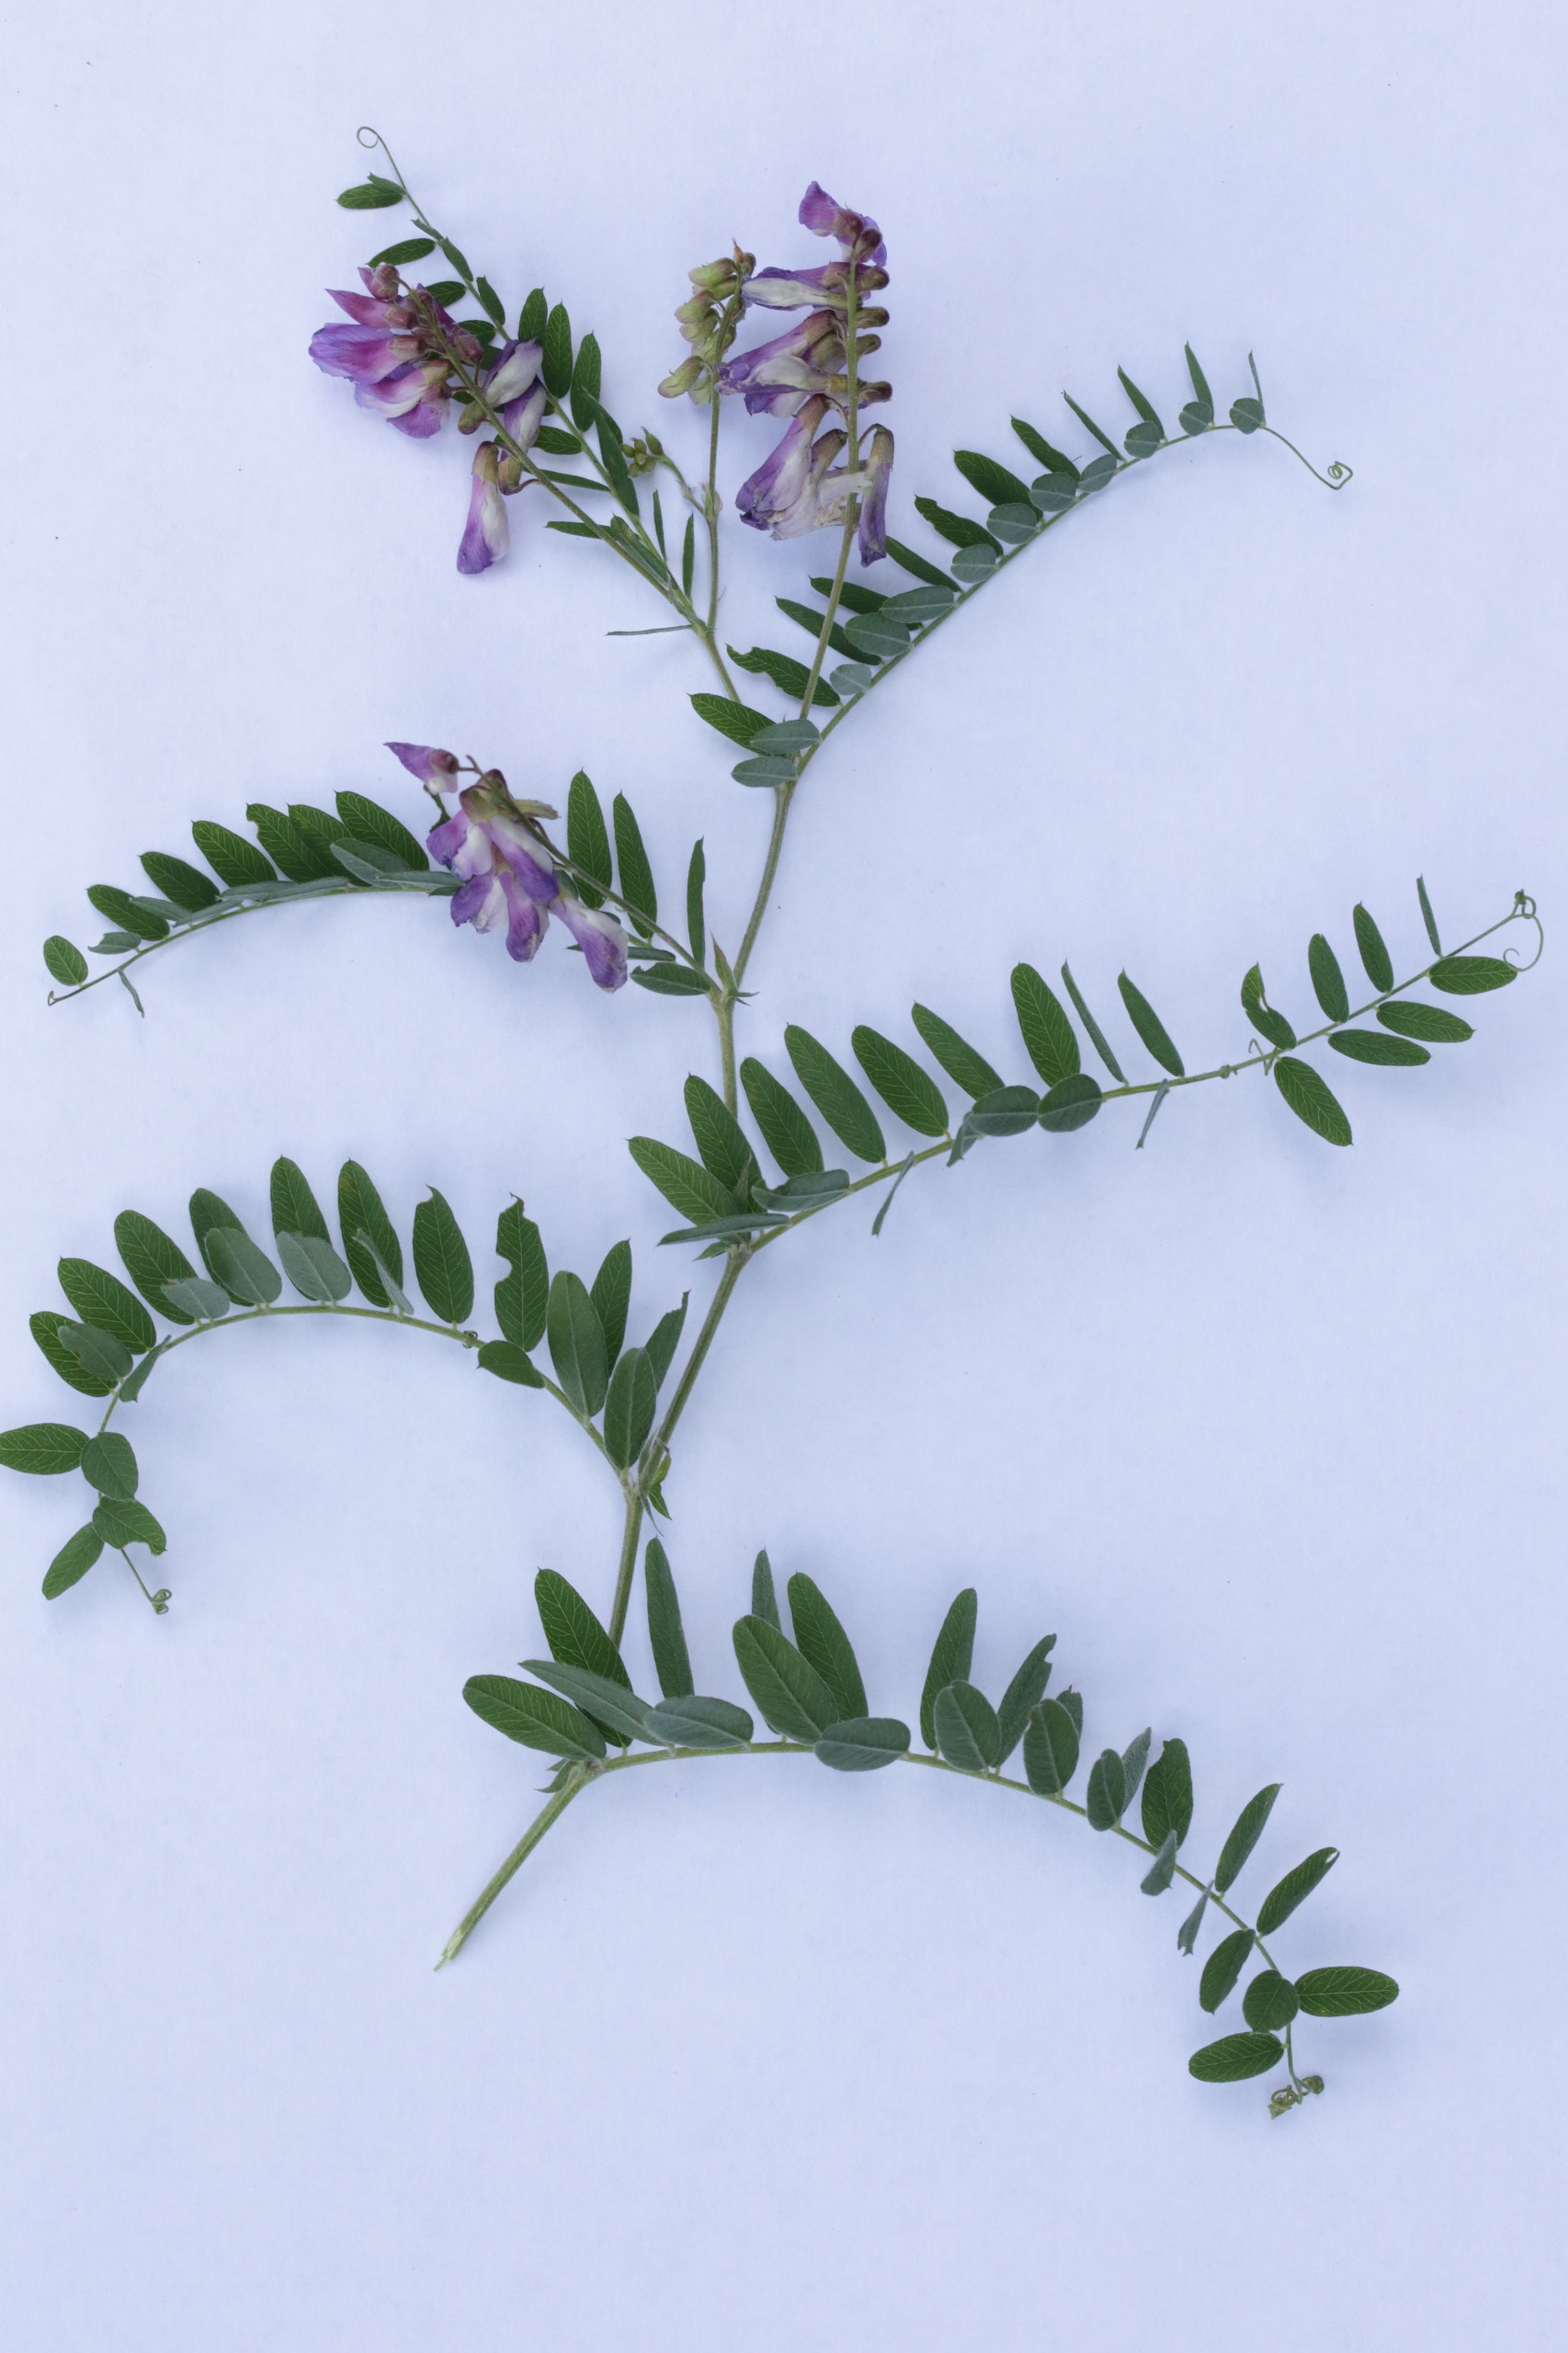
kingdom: Plantae
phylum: Tracheophyta
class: Magnoliopsida
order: Fabales
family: Fabaceae
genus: Vicia
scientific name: Vicia cassubica
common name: Kassubisk vikke
